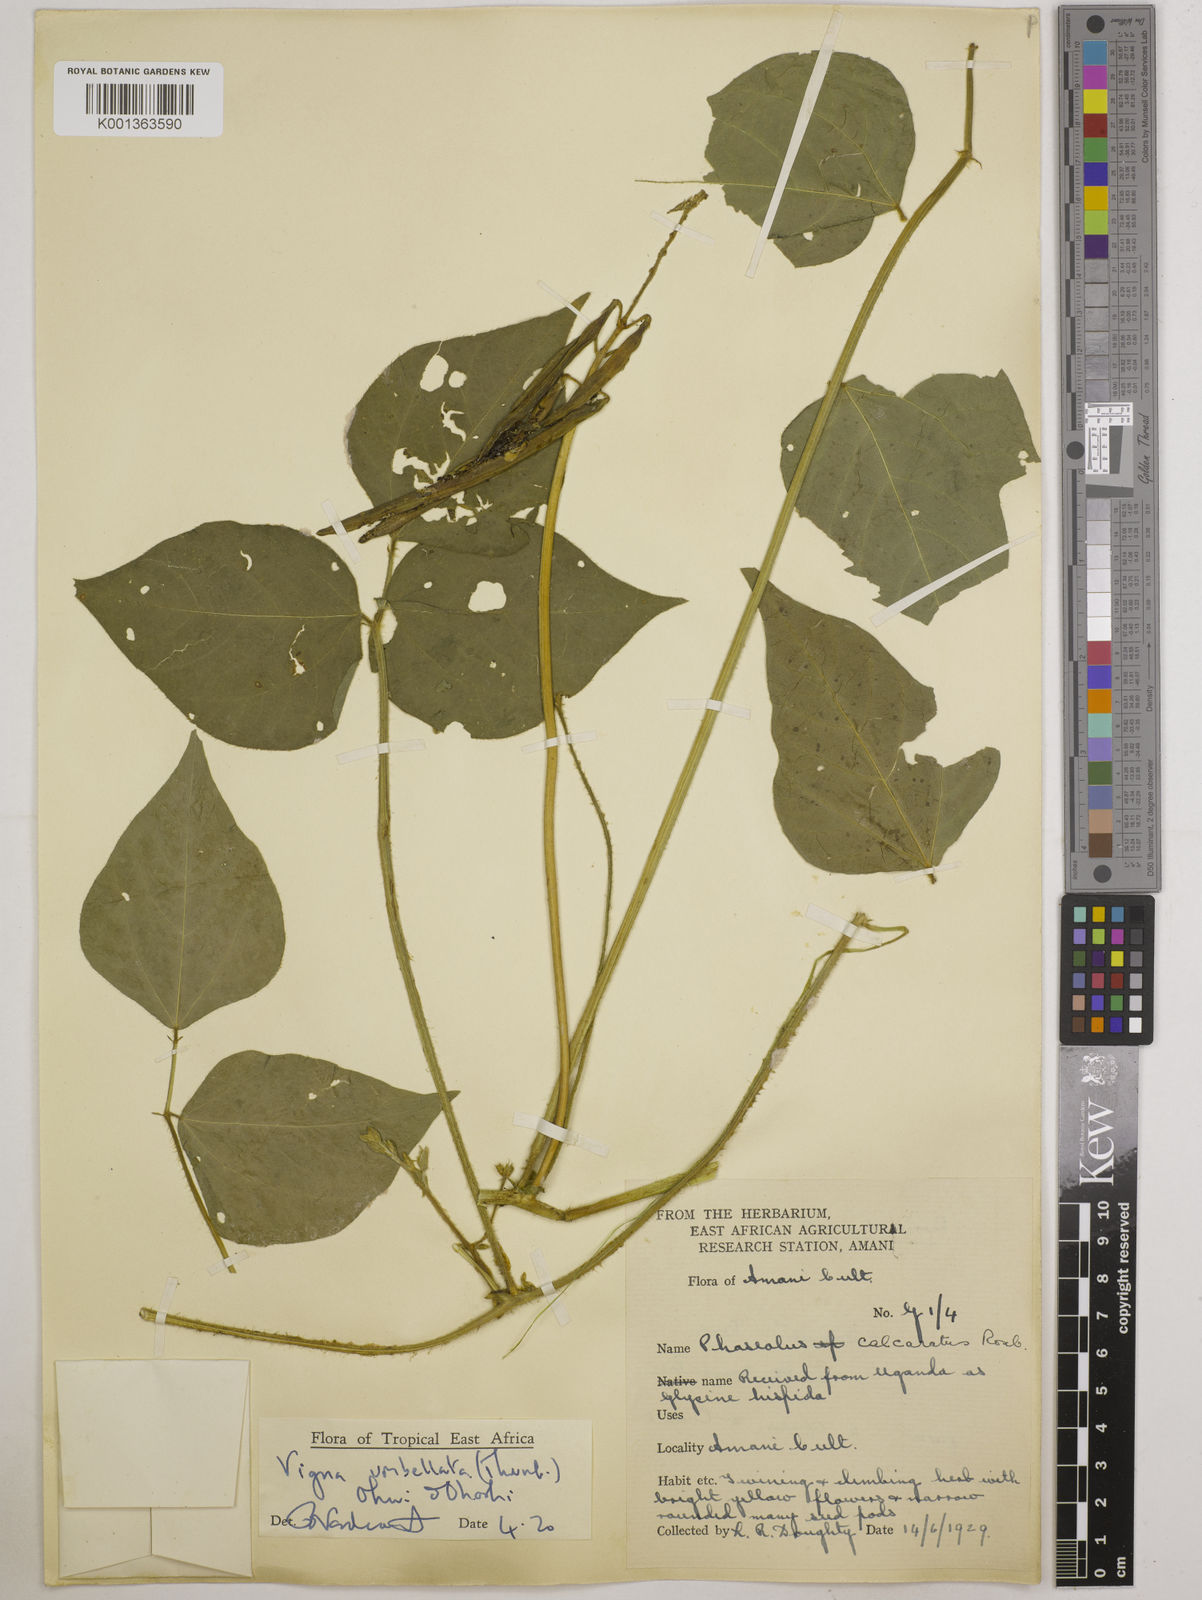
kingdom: Plantae
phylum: Tracheophyta
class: Magnoliopsida
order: Fabales
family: Fabaceae
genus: Vigna
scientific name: Vigna umbellata
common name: Oriental-bean
